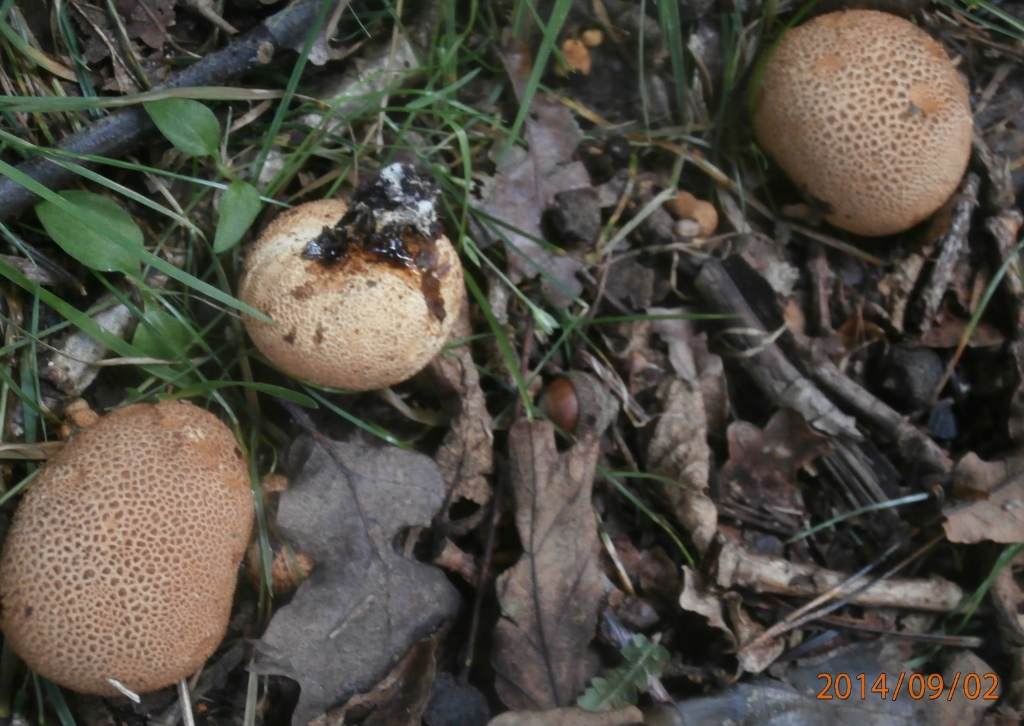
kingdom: Fungi
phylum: Basidiomycota
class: Agaricomycetes
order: Boletales
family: Sclerodermataceae
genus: Scleroderma
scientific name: Scleroderma areolatum
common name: plettet bruskbold
